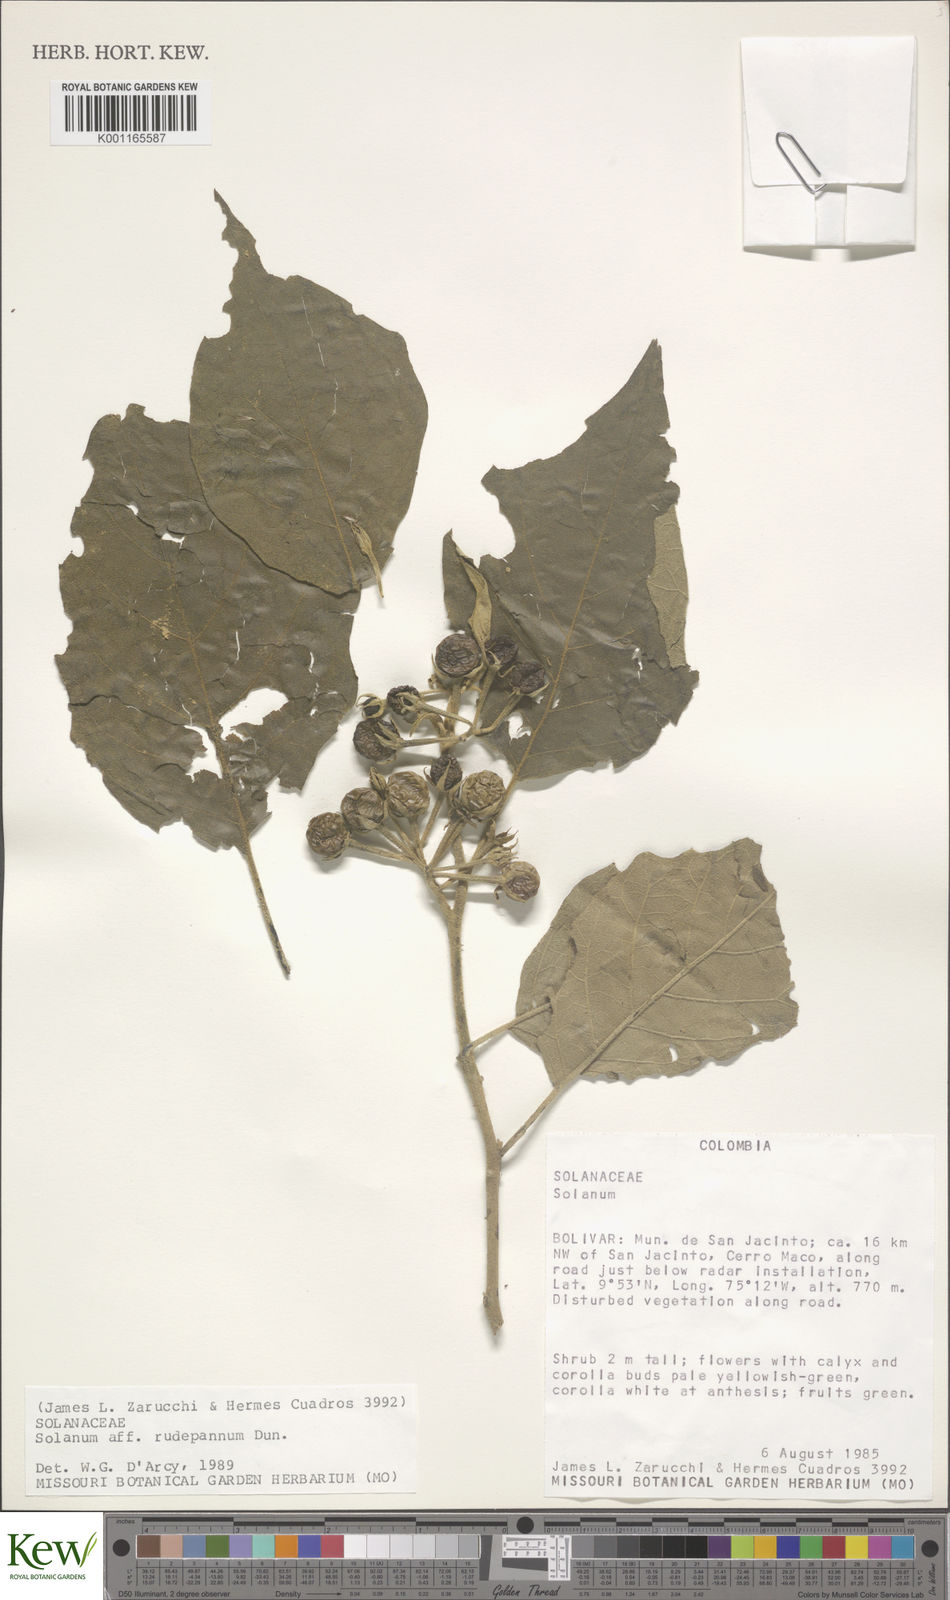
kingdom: Plantae
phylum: Tracheophyta
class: Magnoliopsida
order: Solanales
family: Solanaceae
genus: Solanum
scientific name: Solanum rude-pannum
